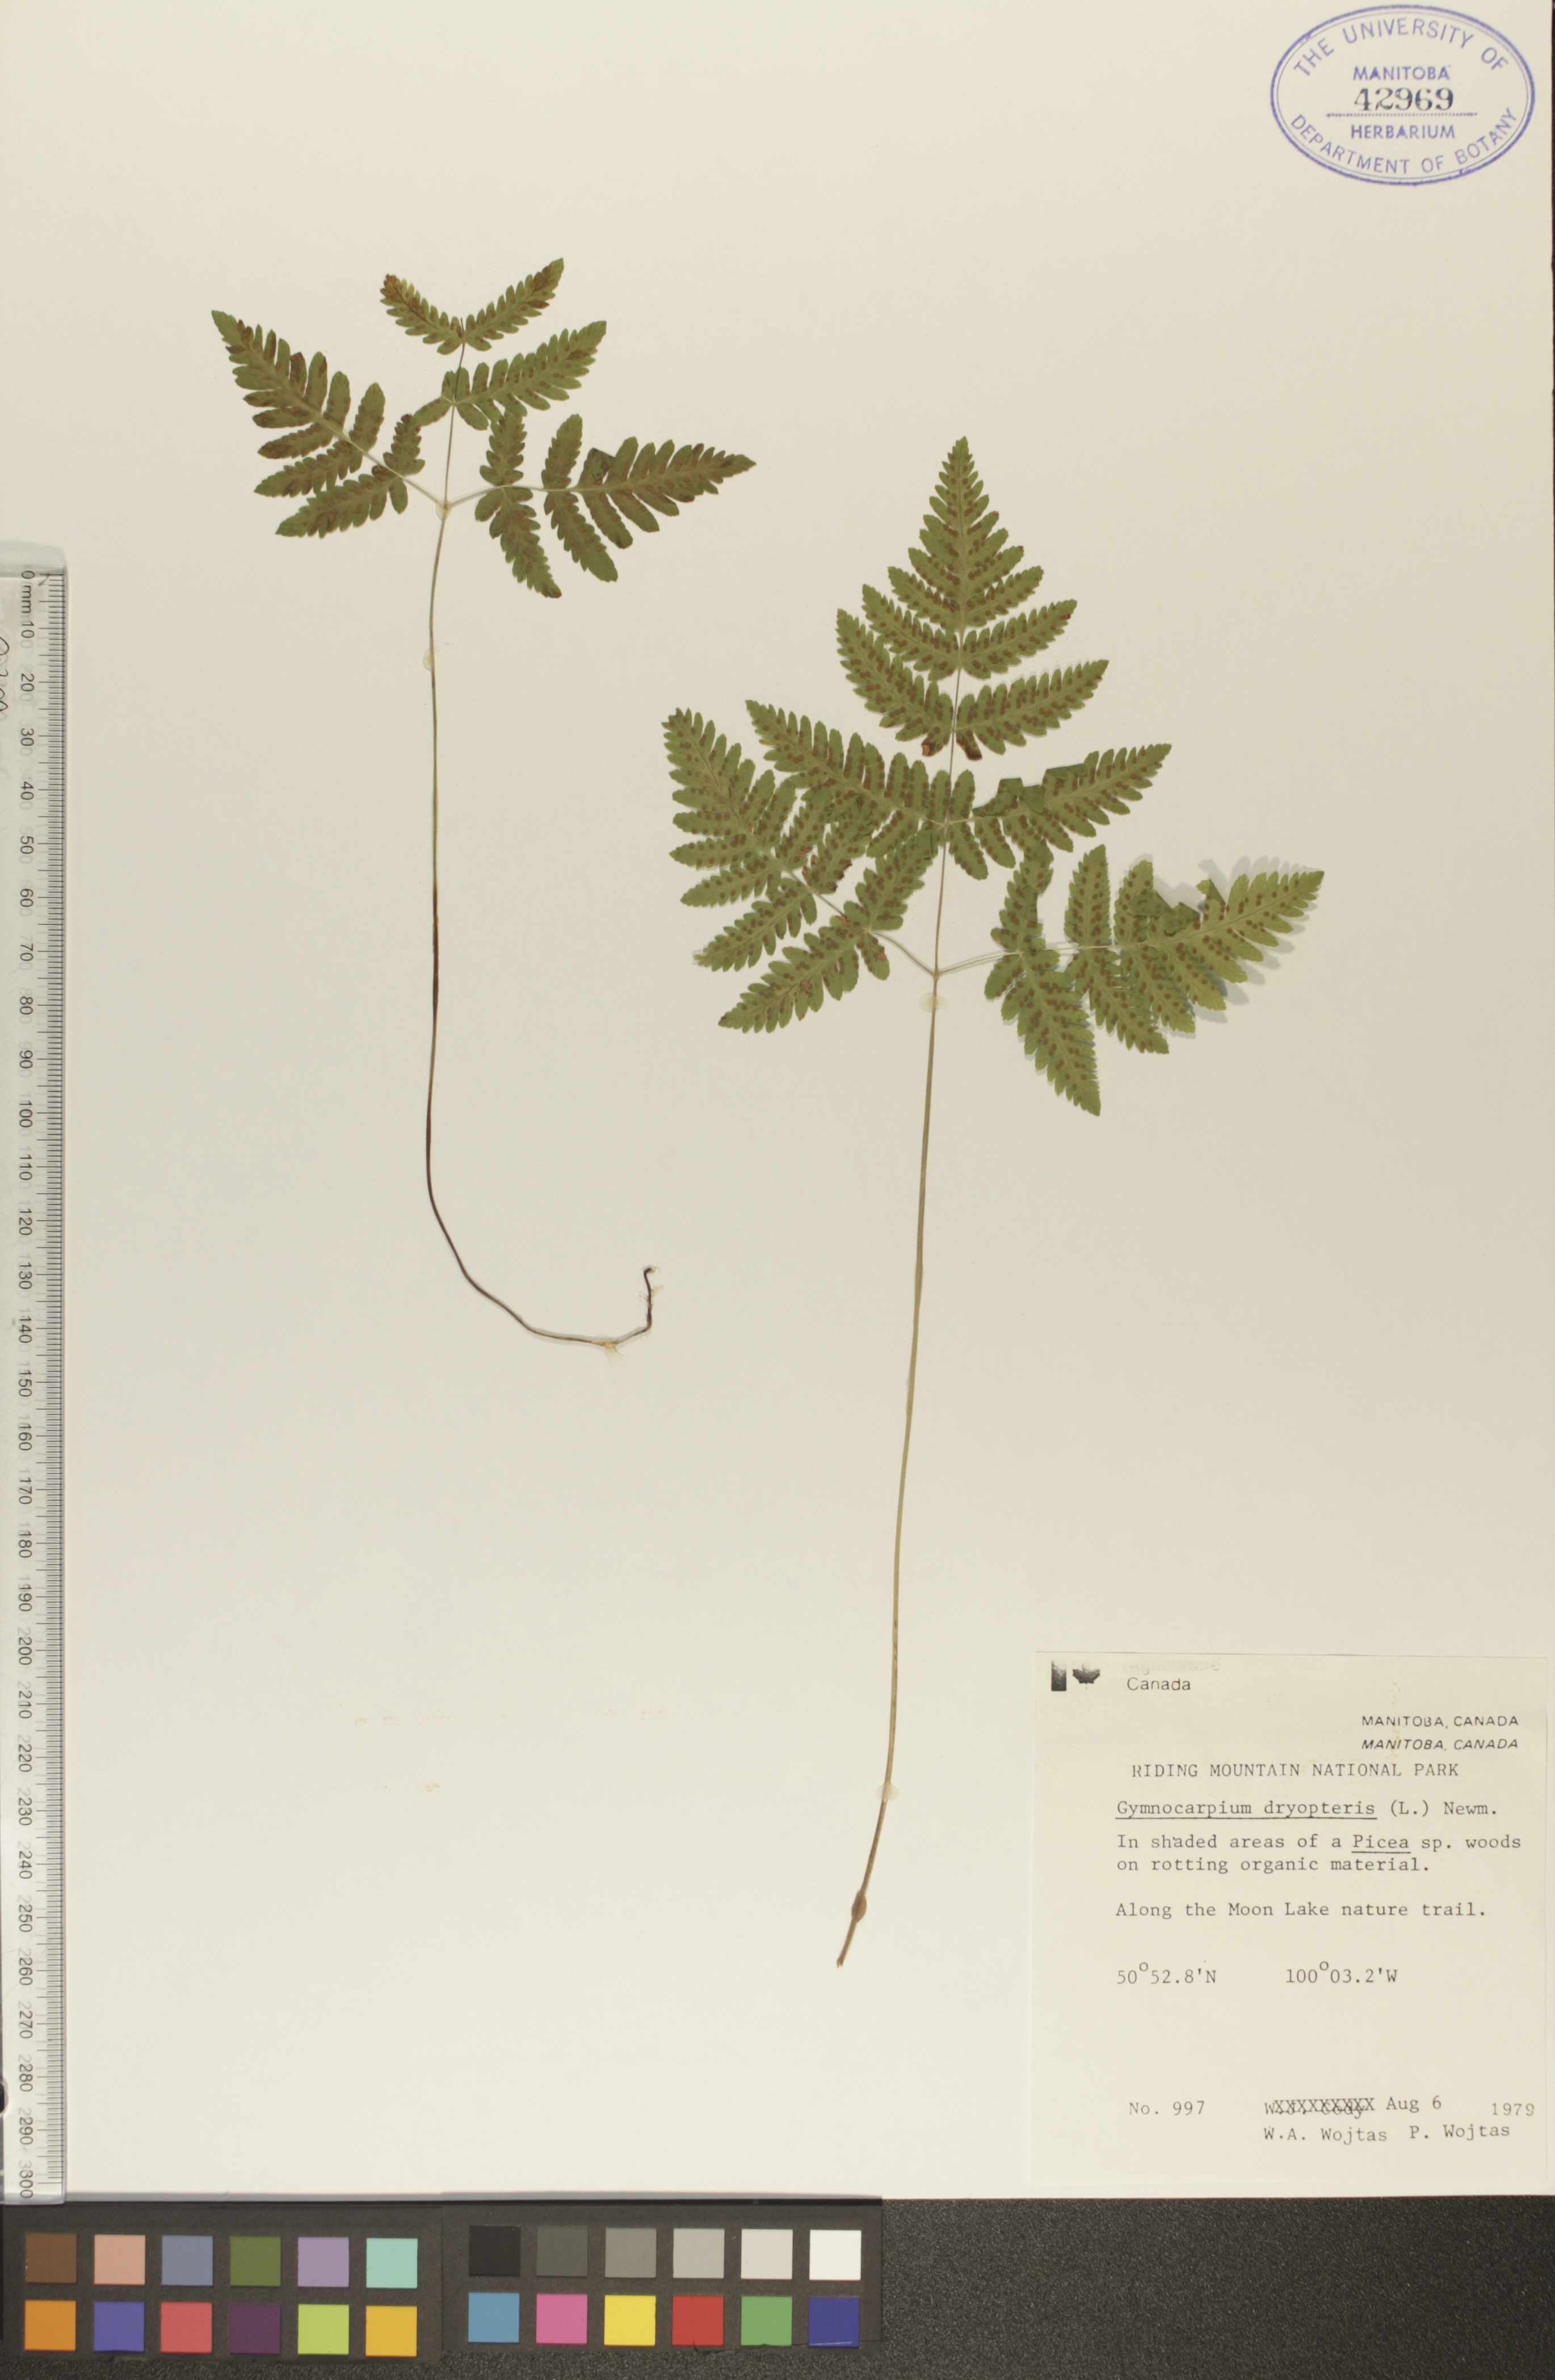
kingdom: Plantae
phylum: Tracheophyta
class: Polypodiopsida
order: Polypodiales
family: Cystopteridaceae
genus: Gymnocarpium
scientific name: Gymnocarpium dryopteris
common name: Oak fern
